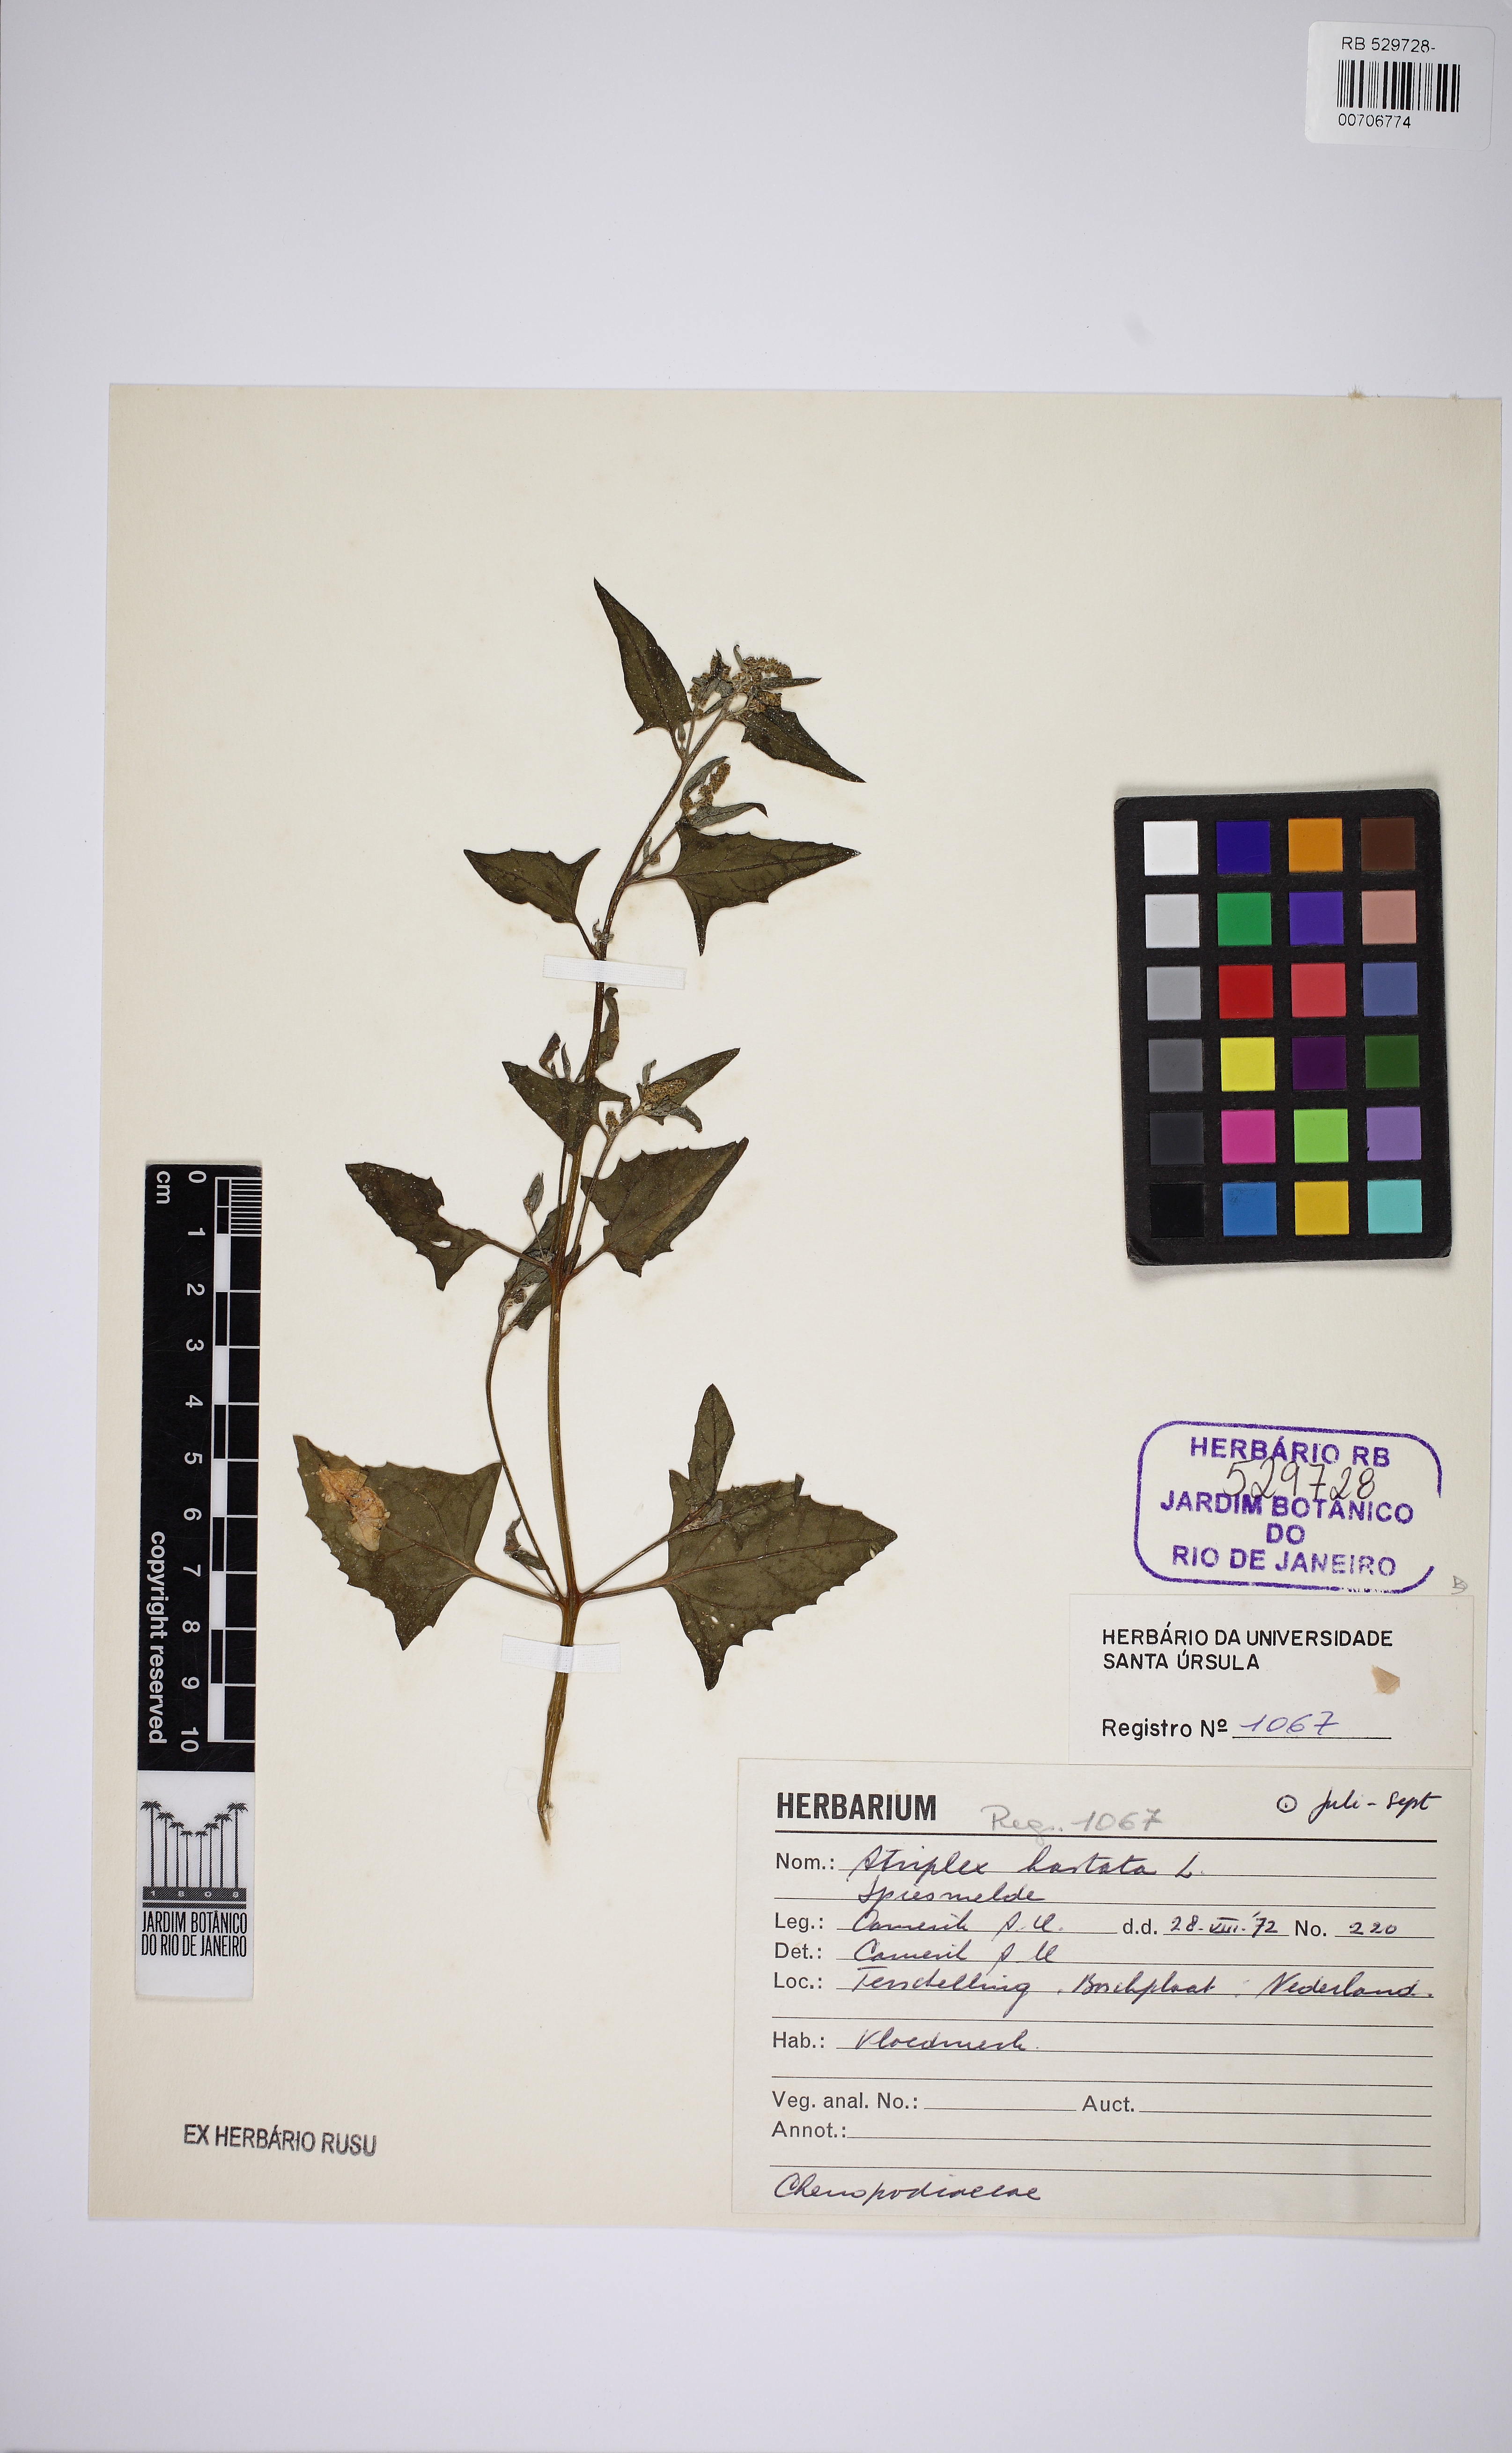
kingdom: Plantae
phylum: Tracheophyta
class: Magnoliopsida
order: Caryophyllales
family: Amaranthaceae
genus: Atriplex
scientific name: Atriplex calotheca
